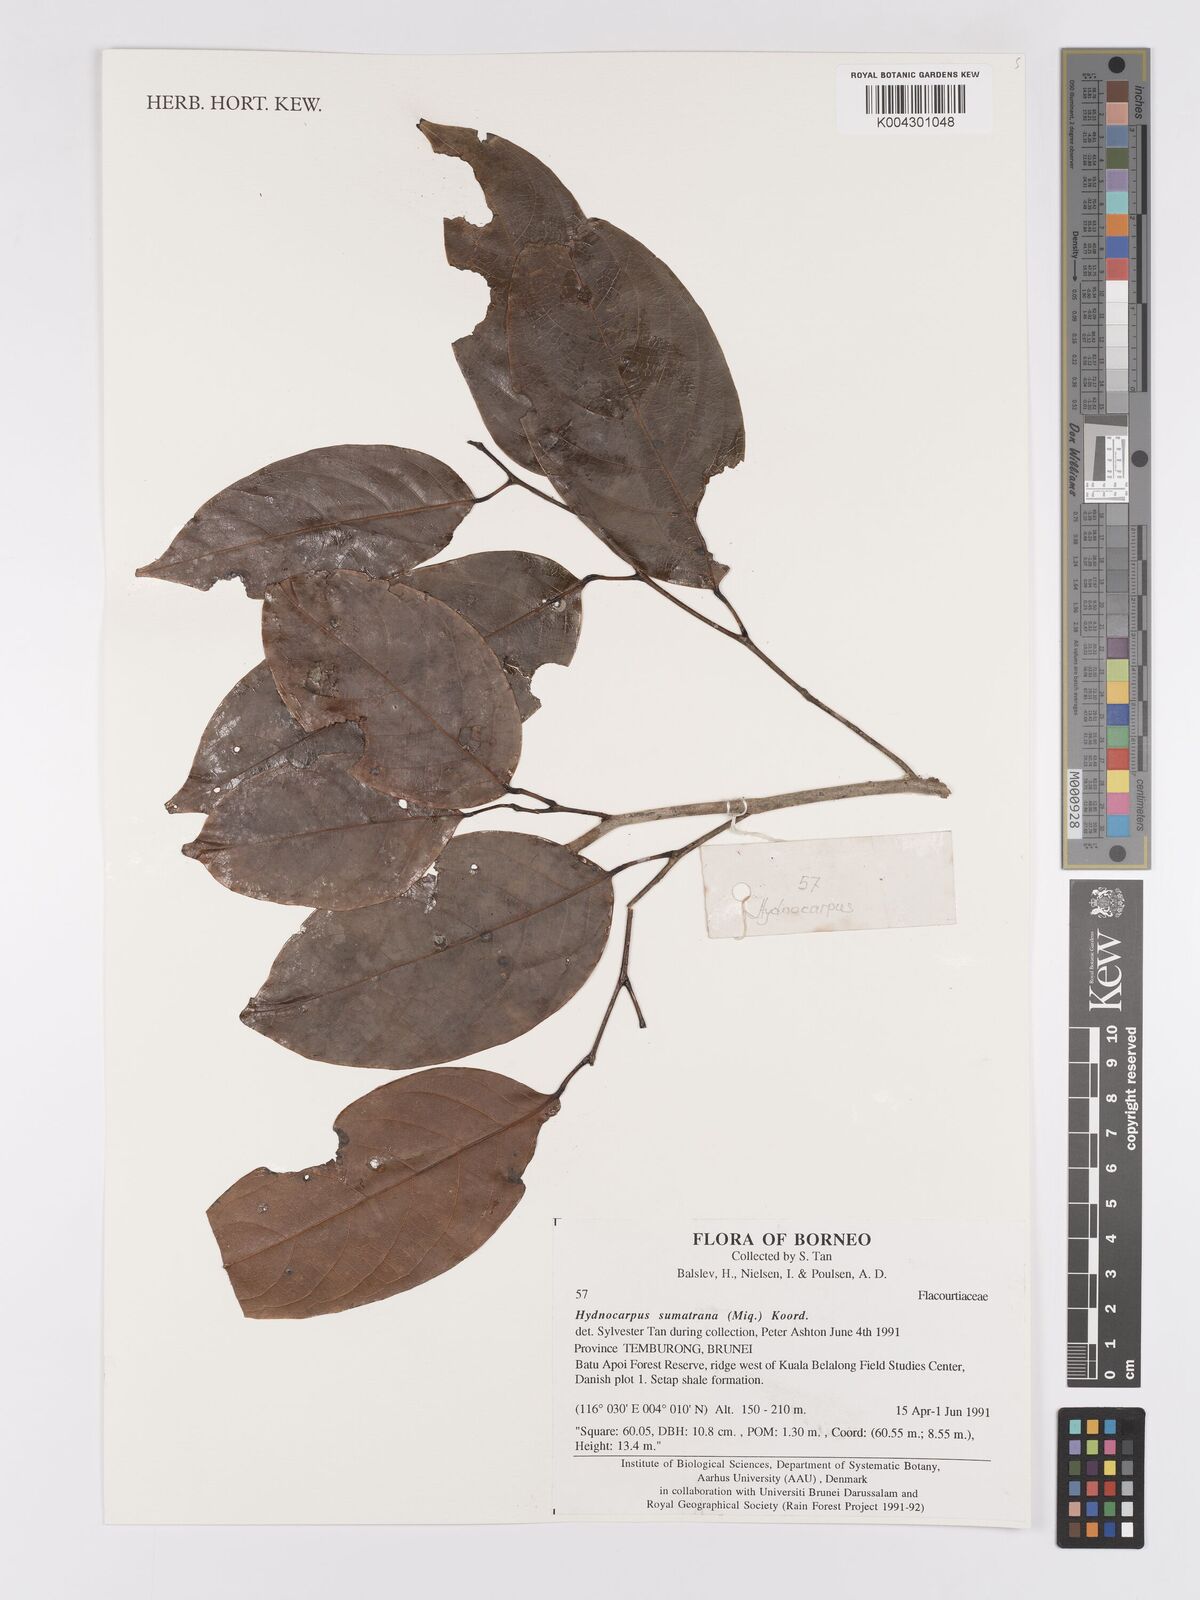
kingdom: Plantae
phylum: Tracheophyta
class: Magnoliopsida
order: Malpighiales
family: Achariaceae
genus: Hydnocarpus
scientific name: Hydnocarpus sumatranus
